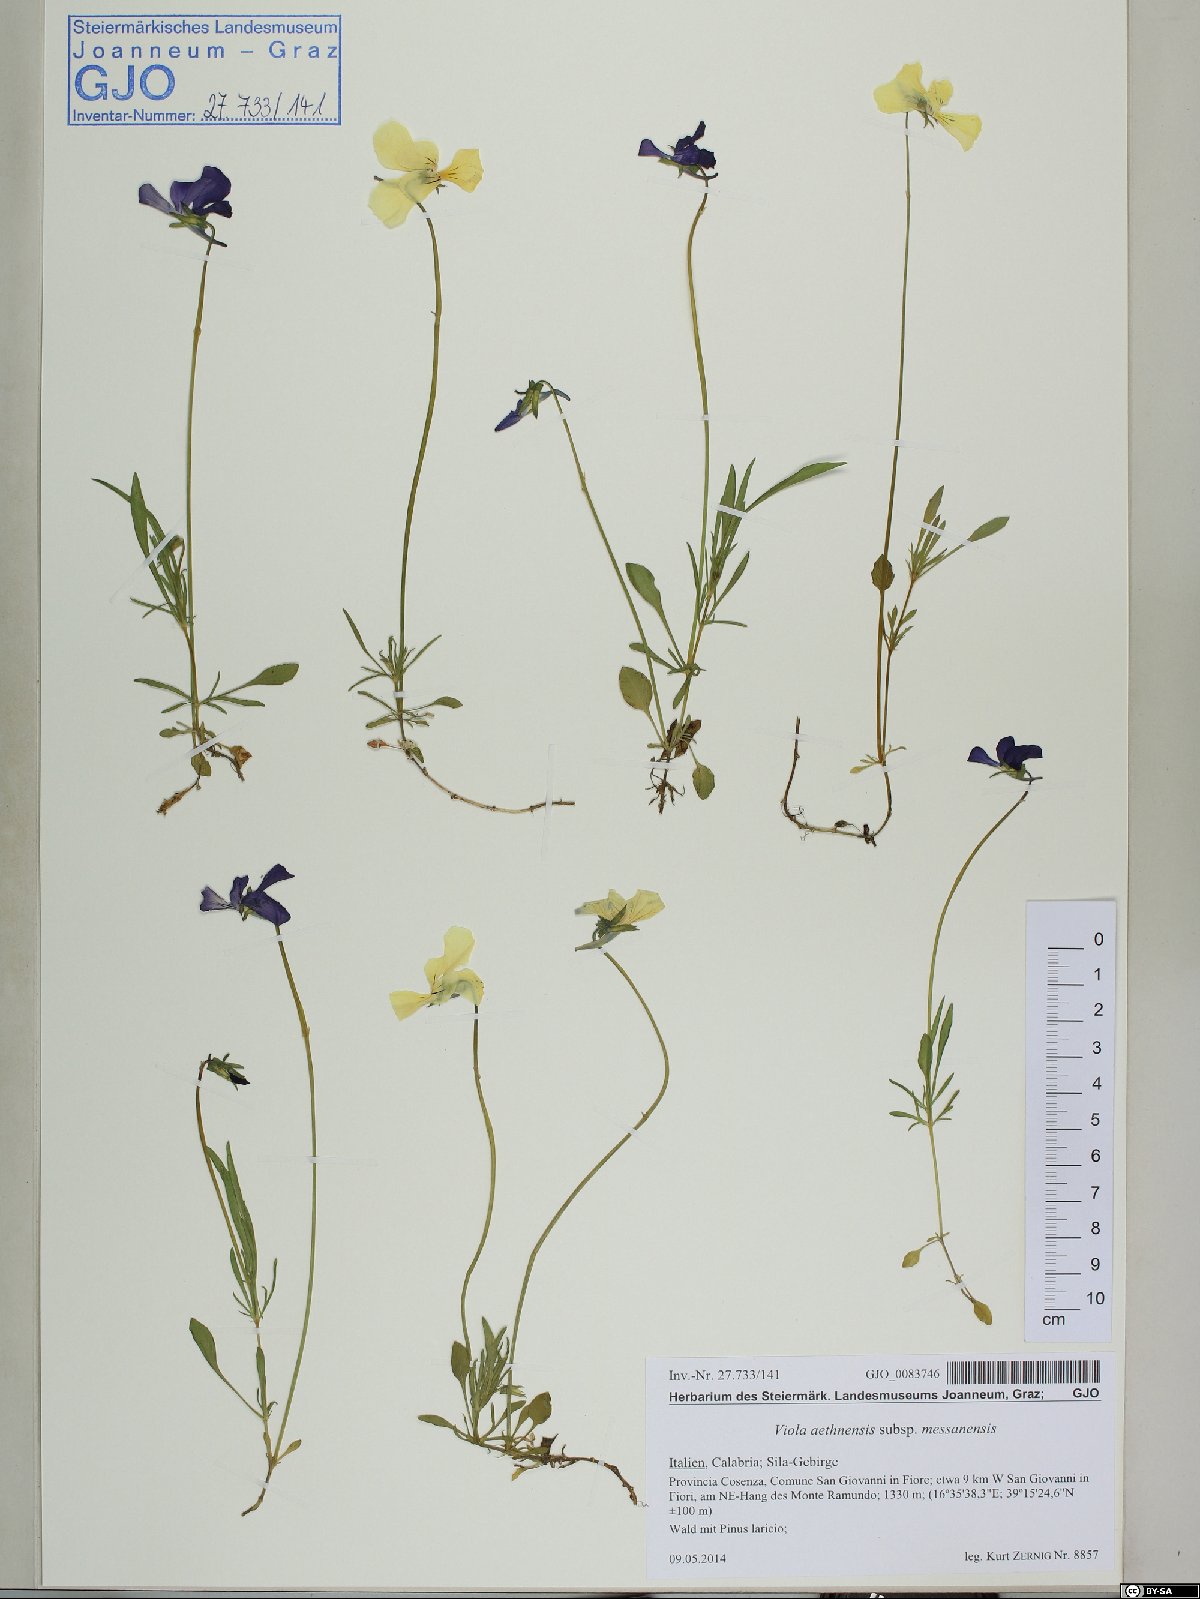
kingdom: Plantae
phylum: Tracheophyta
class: Magnoliopsida
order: Malpighiales
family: Violaceae
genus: Viola
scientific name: Viola aethnensis
